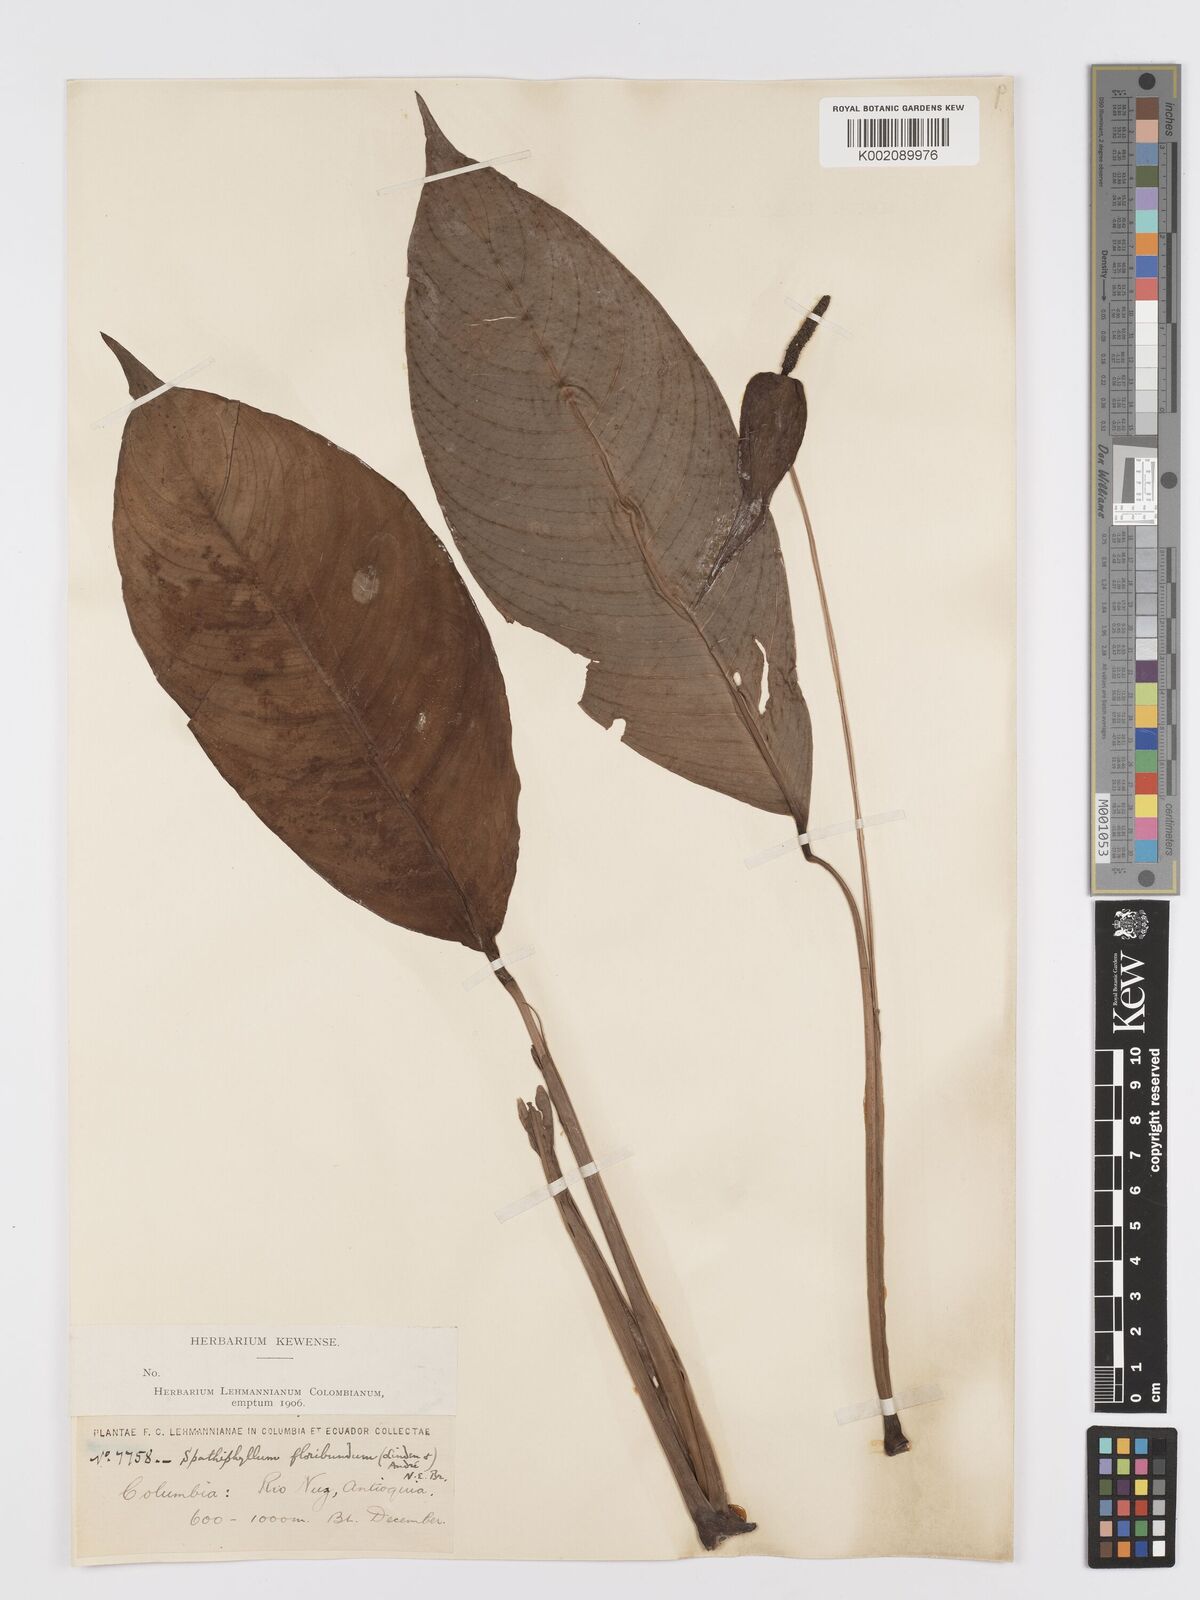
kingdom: Plantae
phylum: Tracheophyta
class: Liliopsida
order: Alismatales
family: Araceae
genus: Spathiphyllum
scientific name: Spathiphyllum floribundum
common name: Peace-lily
